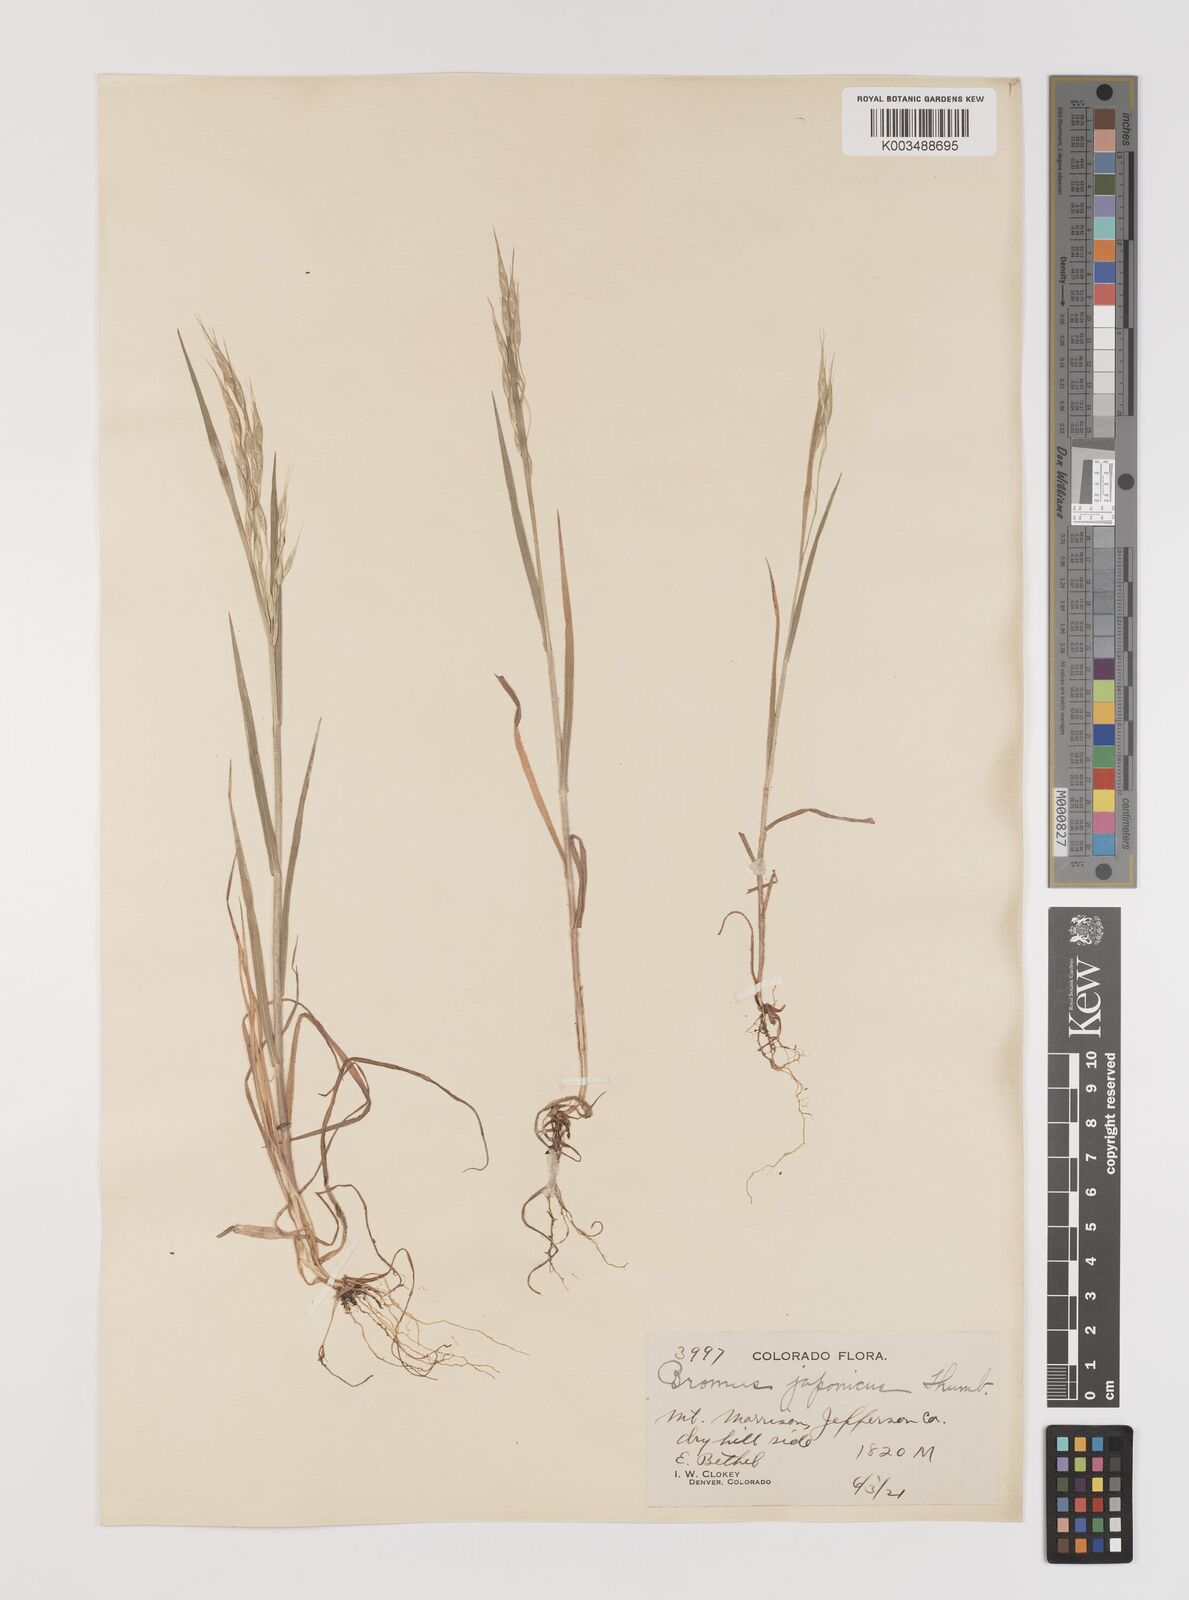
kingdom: Plantae
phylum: Tracheophyta
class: Liliopsida
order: Poales
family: Poaceae
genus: Bromus
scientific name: Bromus racemosus
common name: Bald brome
